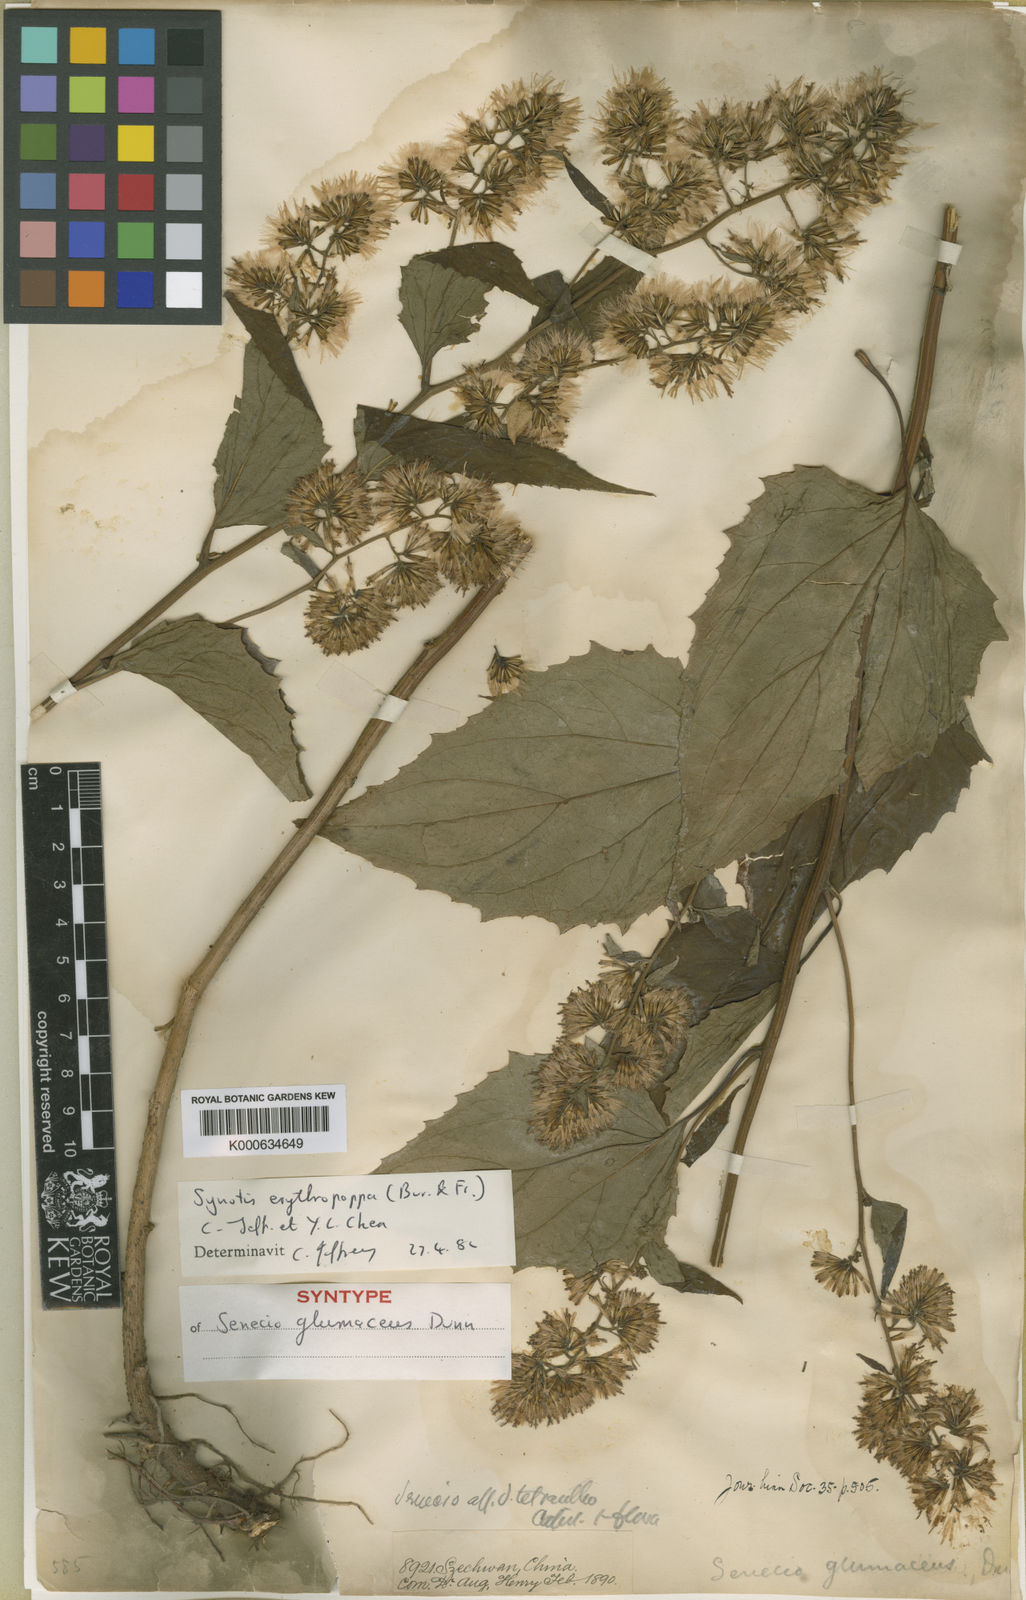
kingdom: Plantae
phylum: Tracheophyta
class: Magnoliopsida
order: Asterales
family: Asteraceae
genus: Synotis
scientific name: Synotis erythropappa
